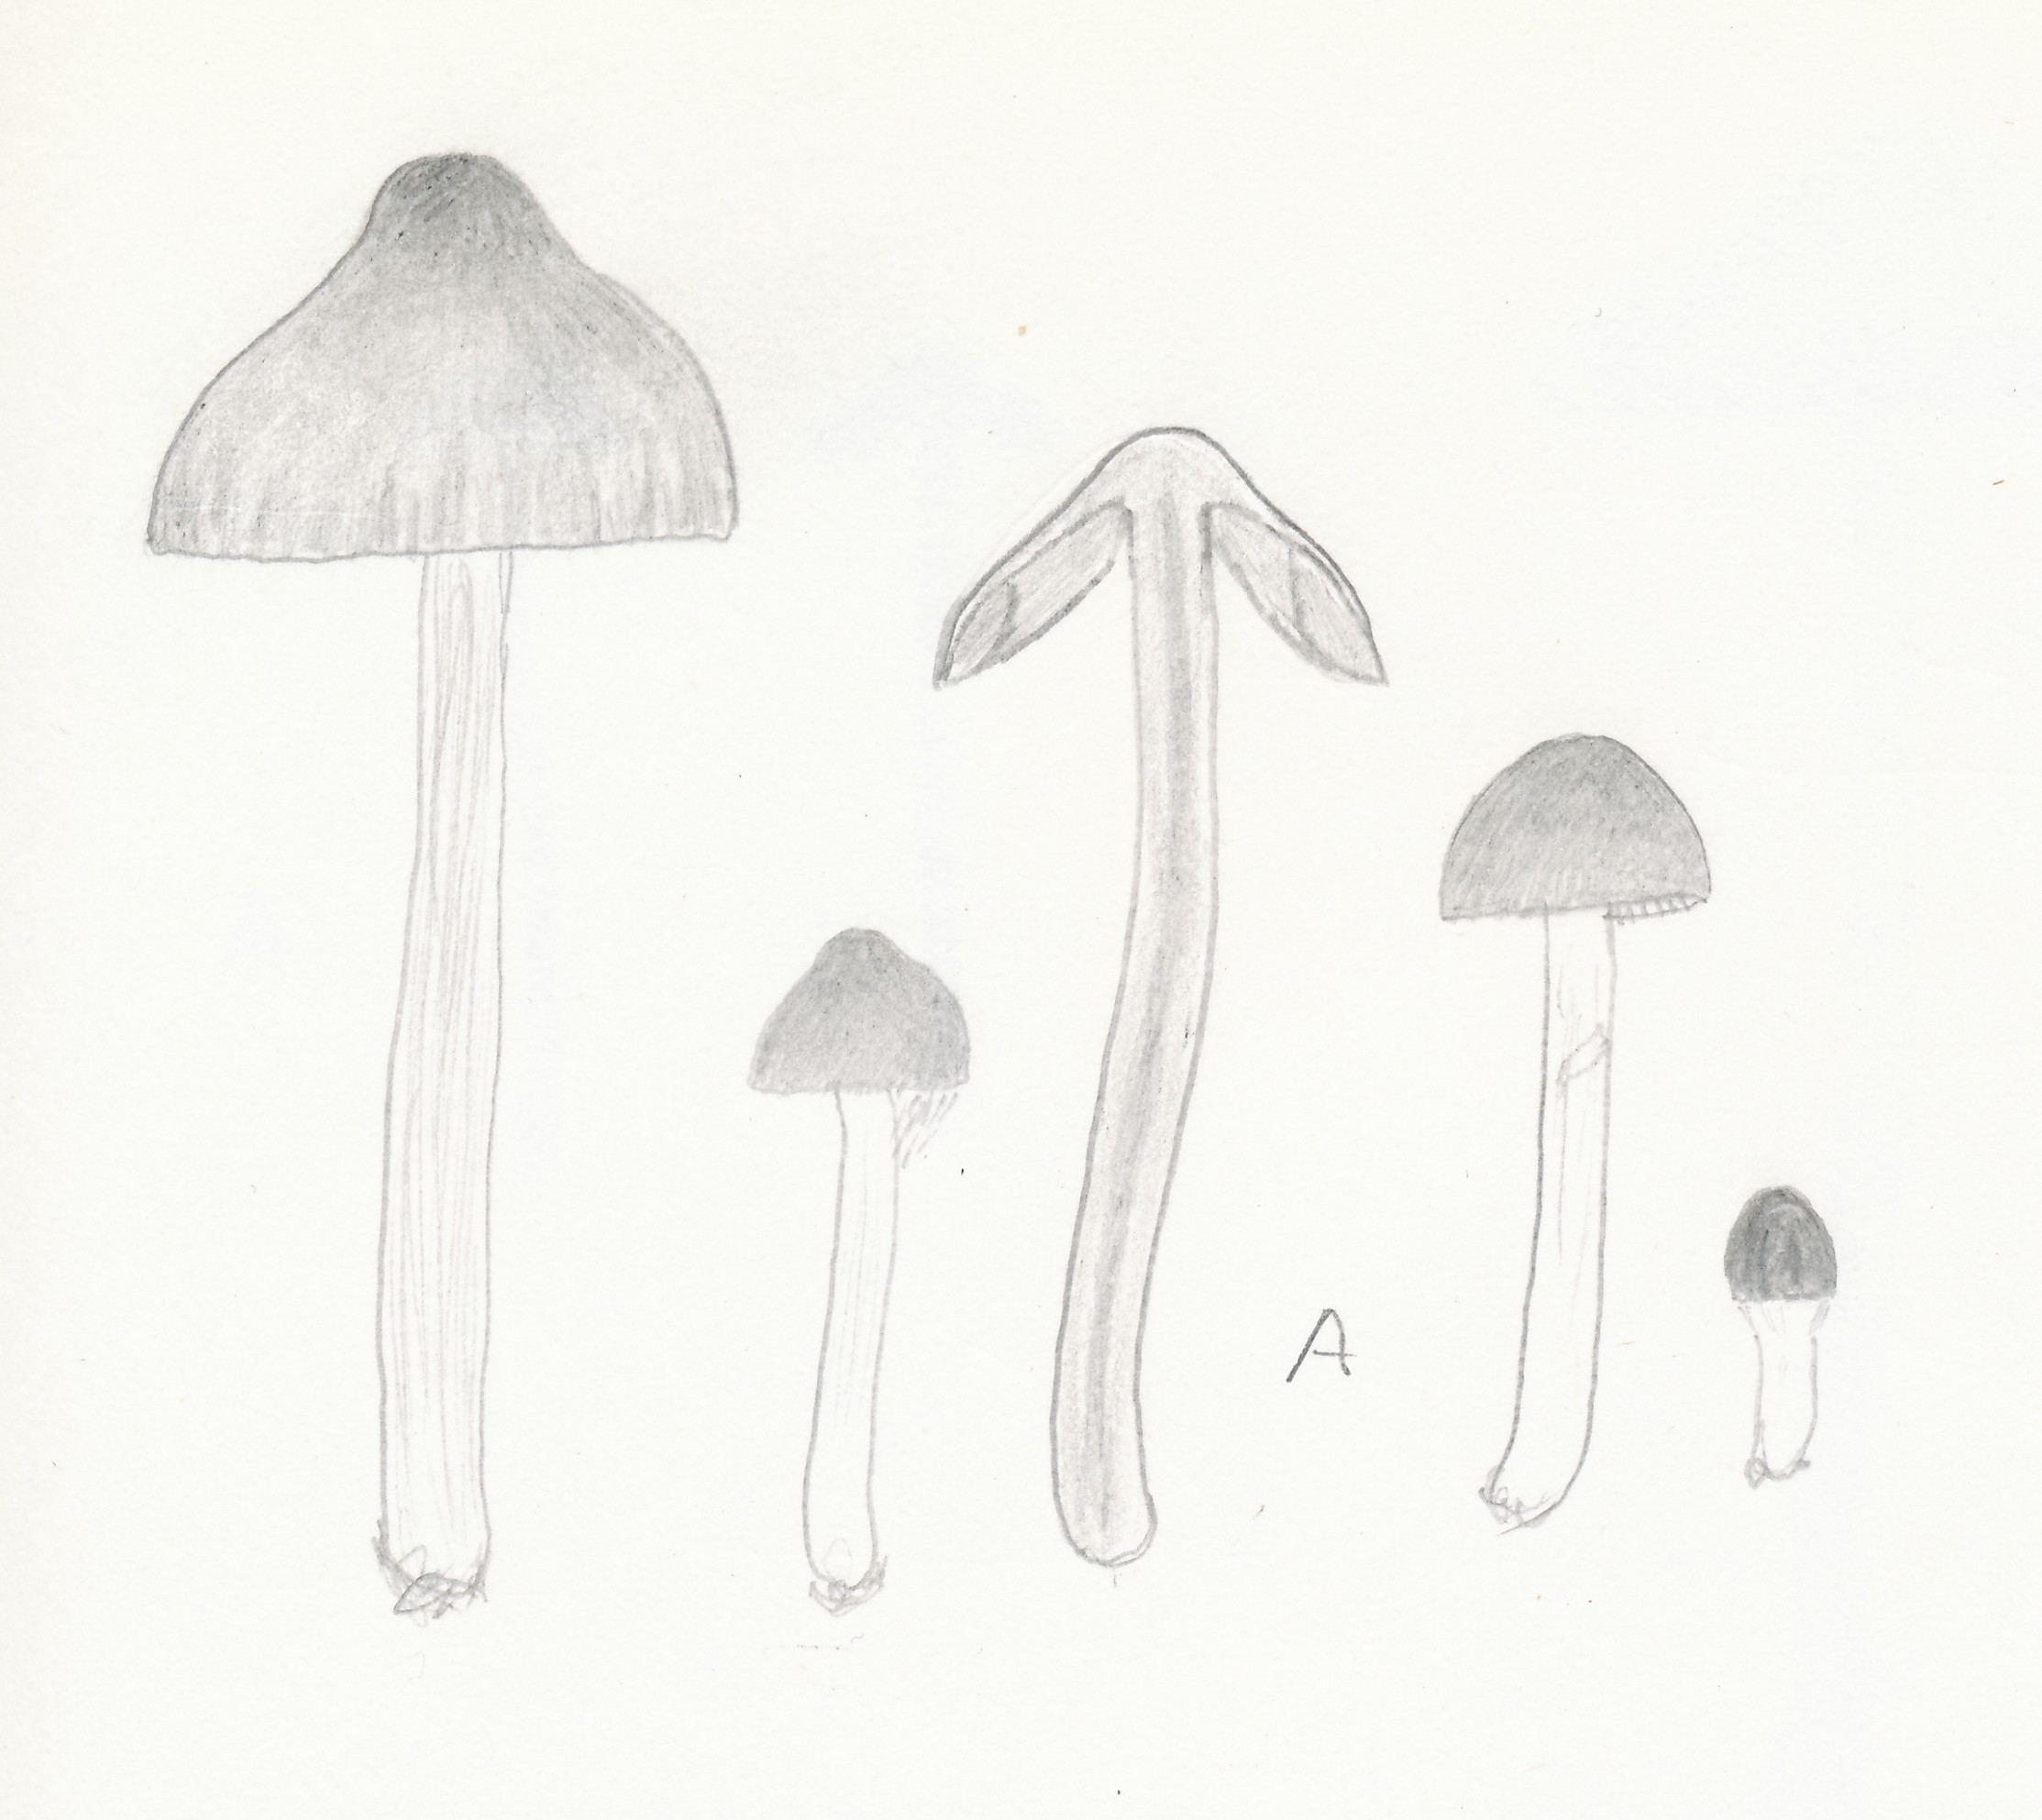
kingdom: Fungi
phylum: Basidiomycota
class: Agaricomycetes
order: Agaricales
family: Hymenogastraceae
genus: Naucoria
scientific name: Naucoria bohemica
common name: birke-knaphat
